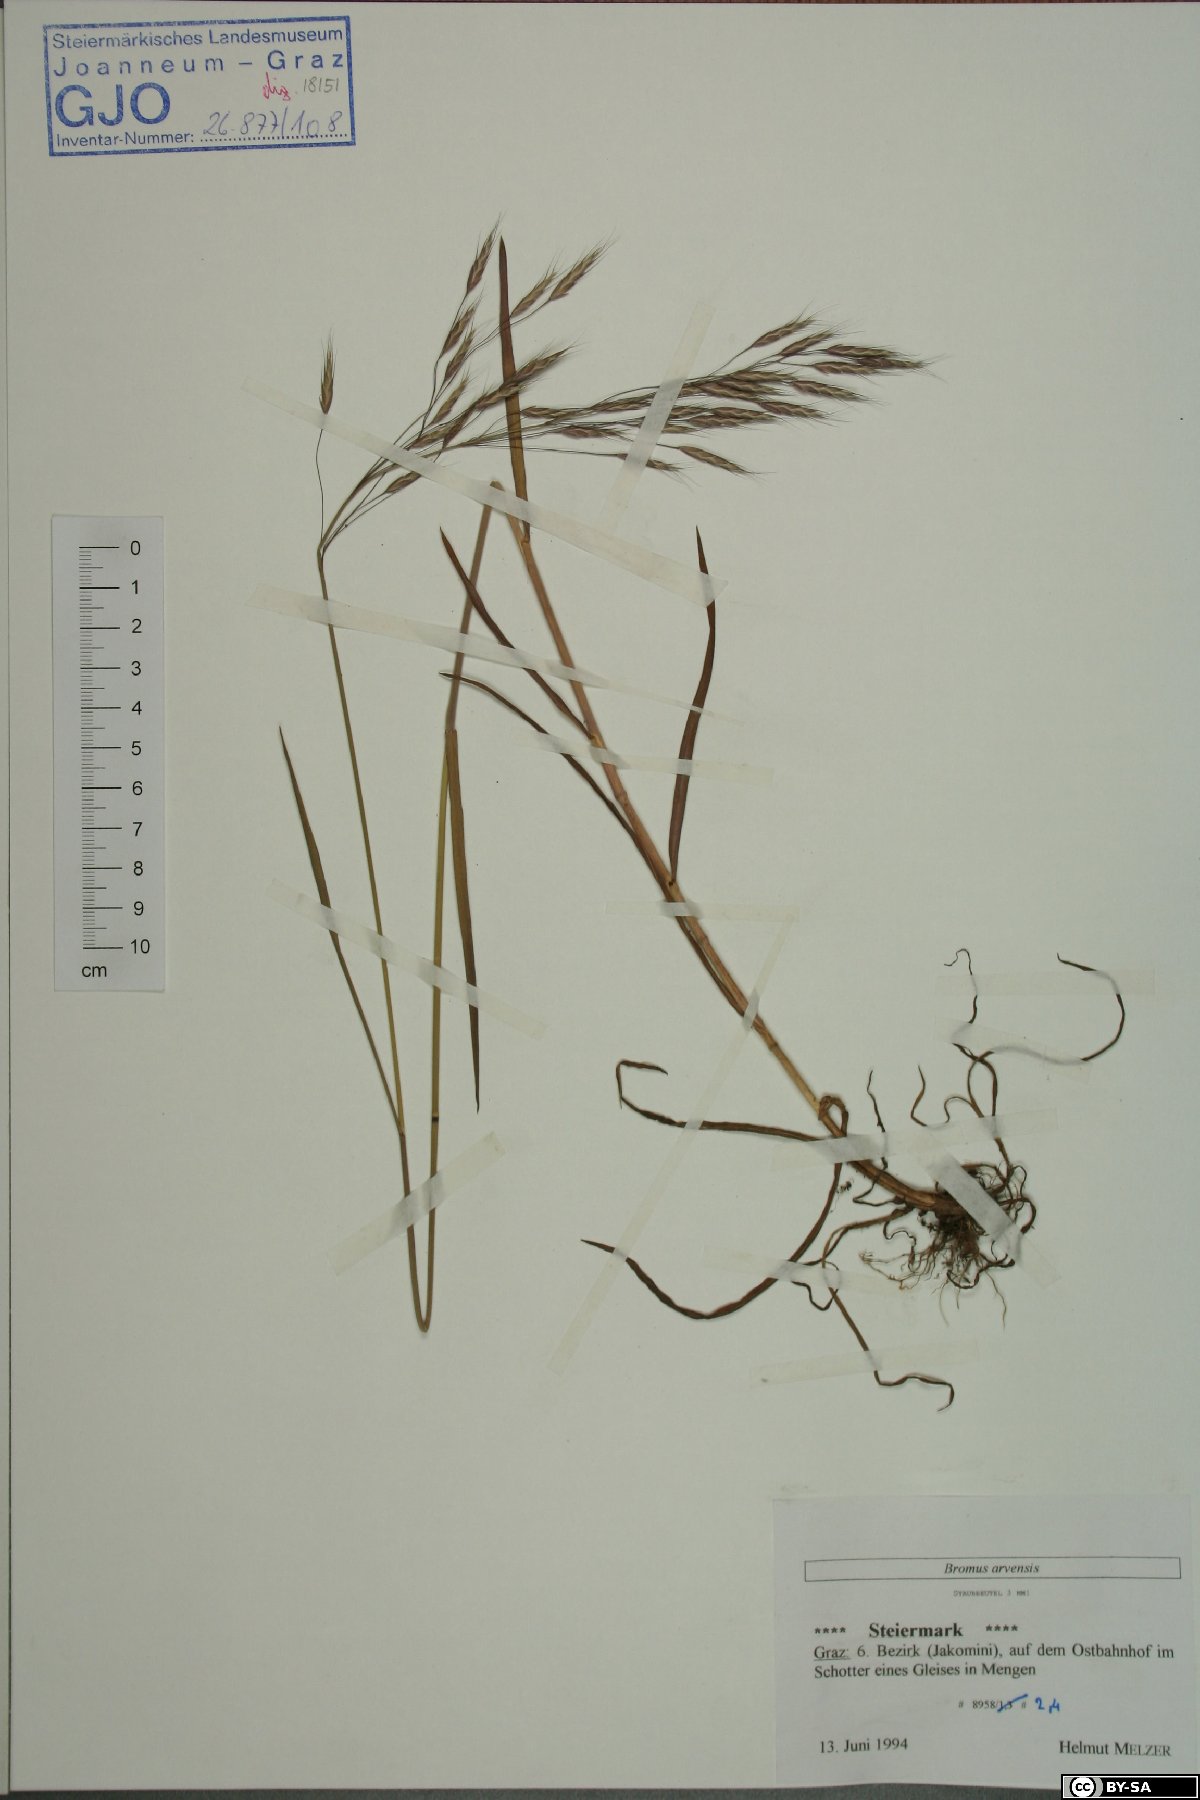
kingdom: Plantae
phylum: Tracheophyta
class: Liliopsida
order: Poales
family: Poaceae
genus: Bromus
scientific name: Bromus arvensis
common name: Field brome
